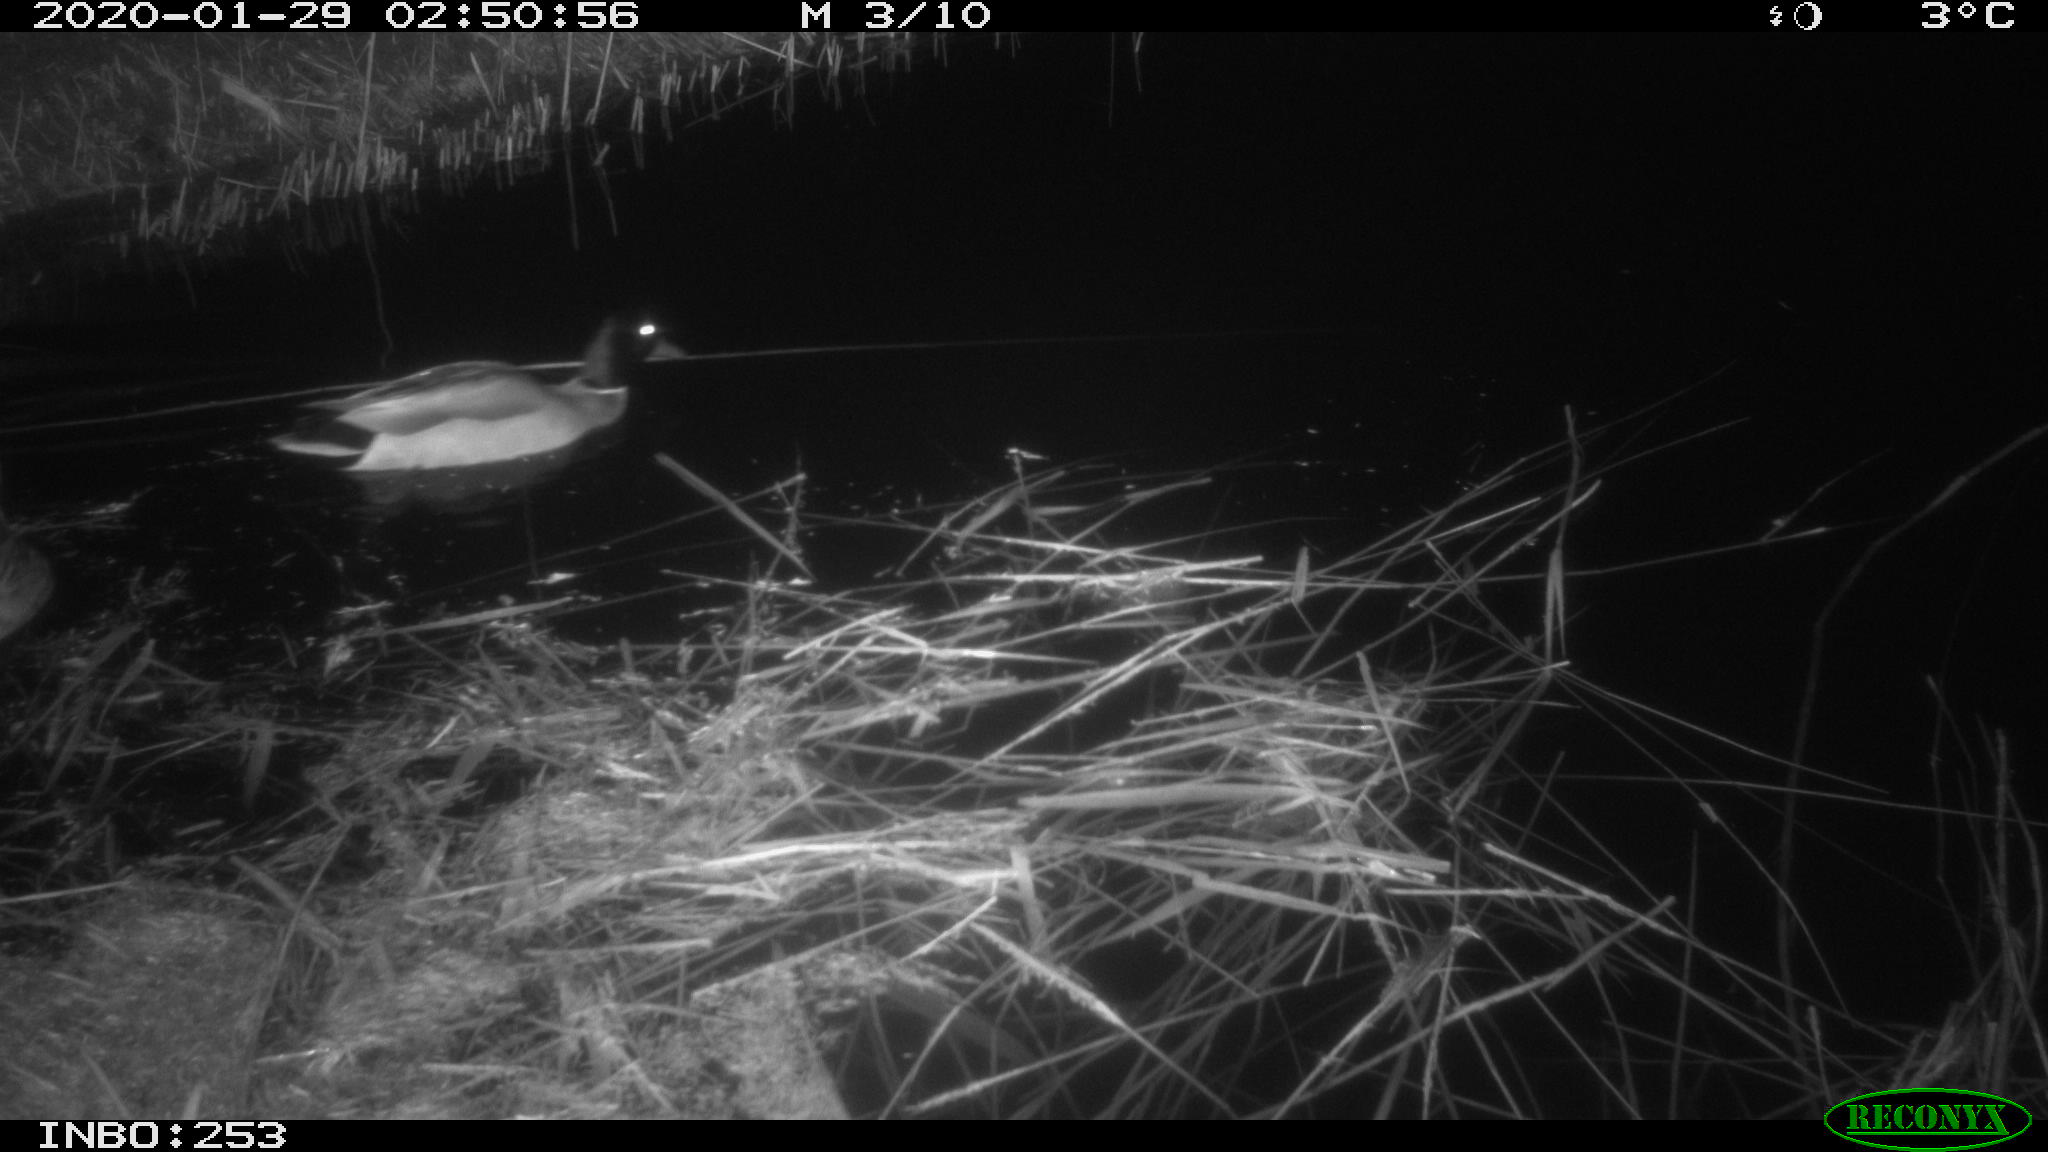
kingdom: Animalia
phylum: Chordata
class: Aves
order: Anseriformes
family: Anatidae
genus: Anas
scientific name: Anas platyrhynchos
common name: Mallard
